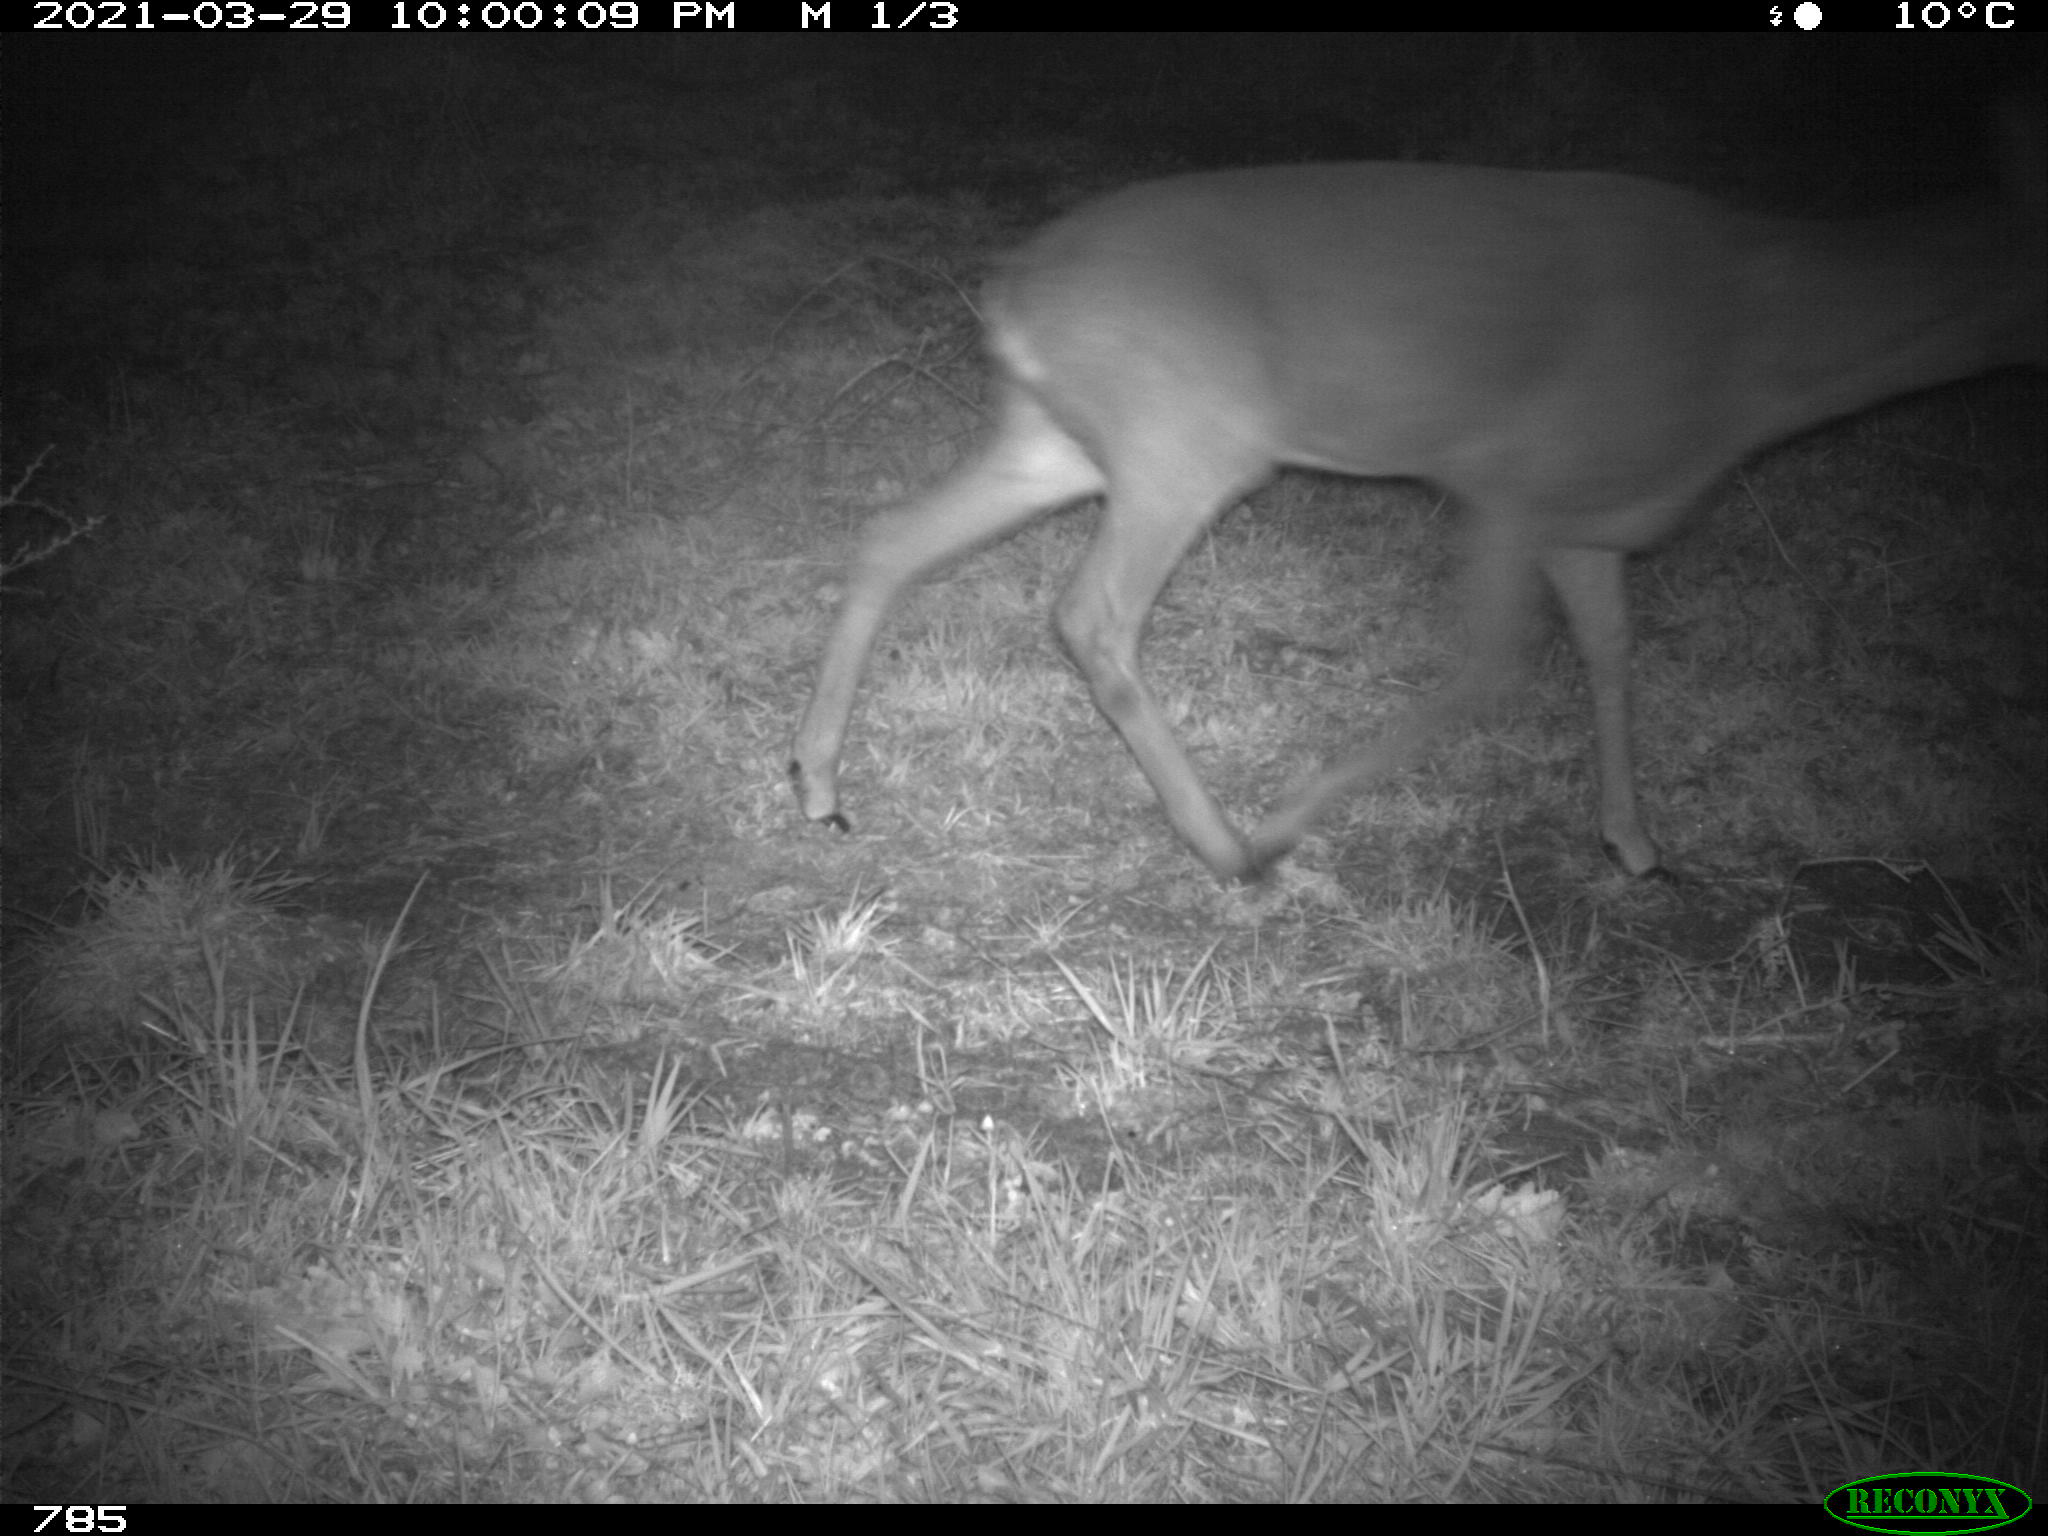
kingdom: Animalia
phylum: Chordata
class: Mammalia
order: Artiodactyla
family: Cervidae
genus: Capreolus
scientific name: Capreolus capreolus
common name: Western roe deer
